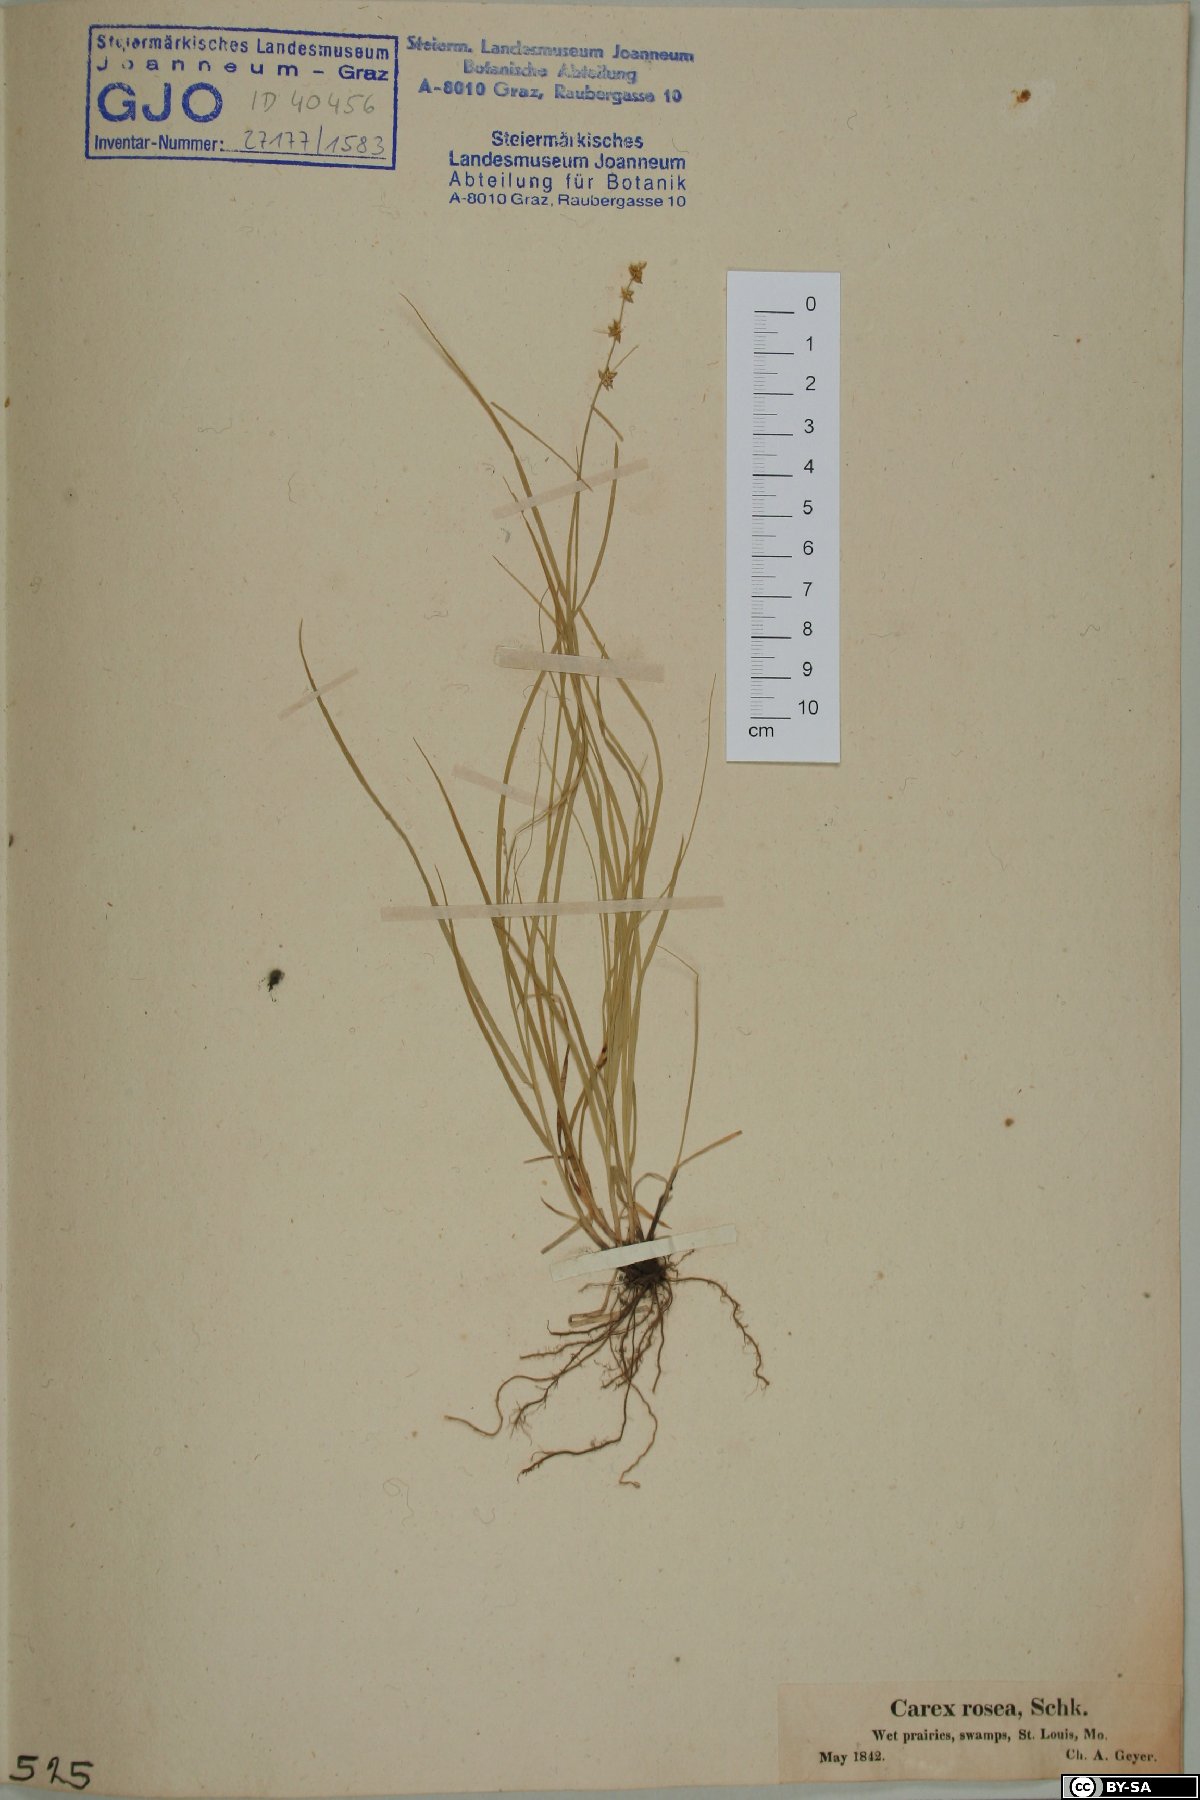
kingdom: Plantae
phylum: Tracheophyta
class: Liliopsida
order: Poales
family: Cyperaceae
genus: Carex
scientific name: Carex rosea
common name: Curly-styled wood sedge
